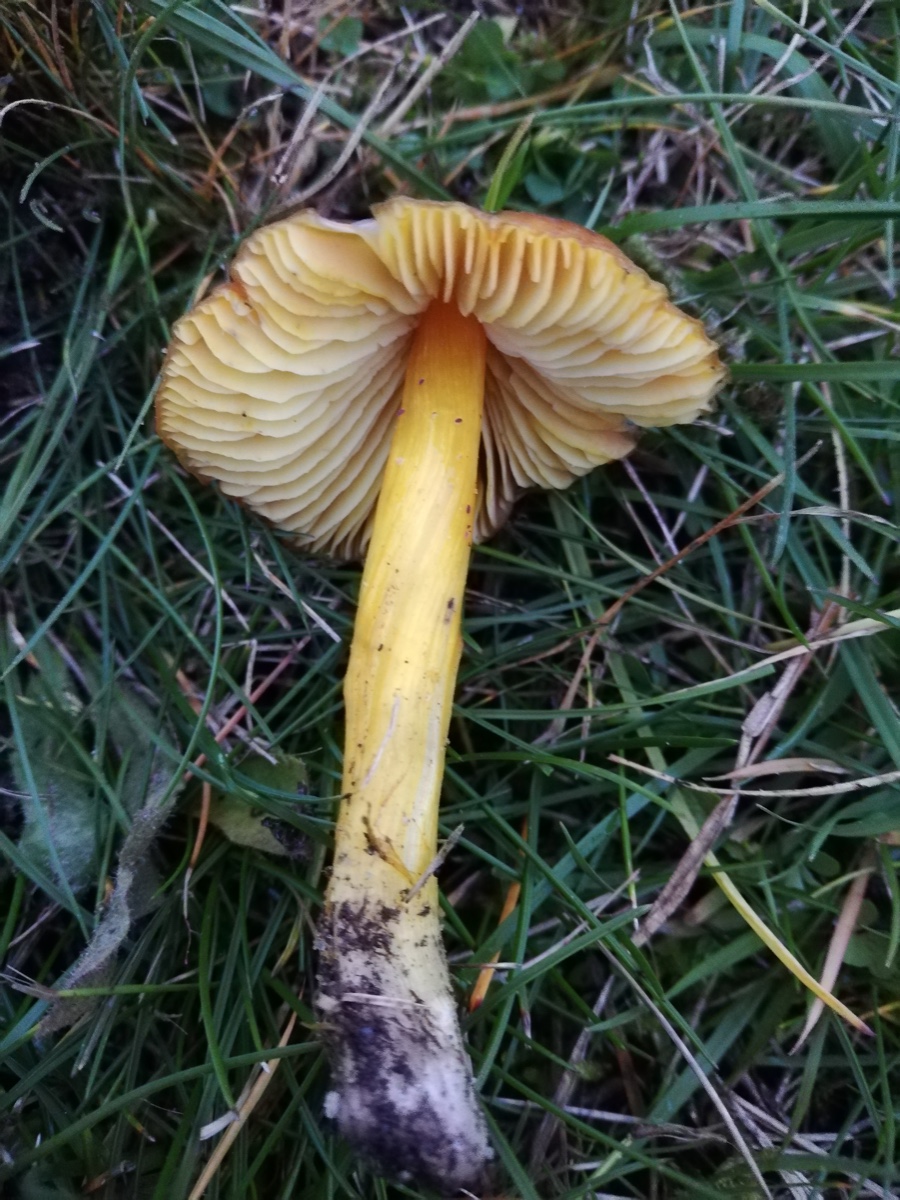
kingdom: Fungi
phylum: Basidiomycota
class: Agaricomycetes
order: Agaricales
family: Hygrophoraceae
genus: Hygrocybe
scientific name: Hygrocybe conica
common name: kegle-vokshat
